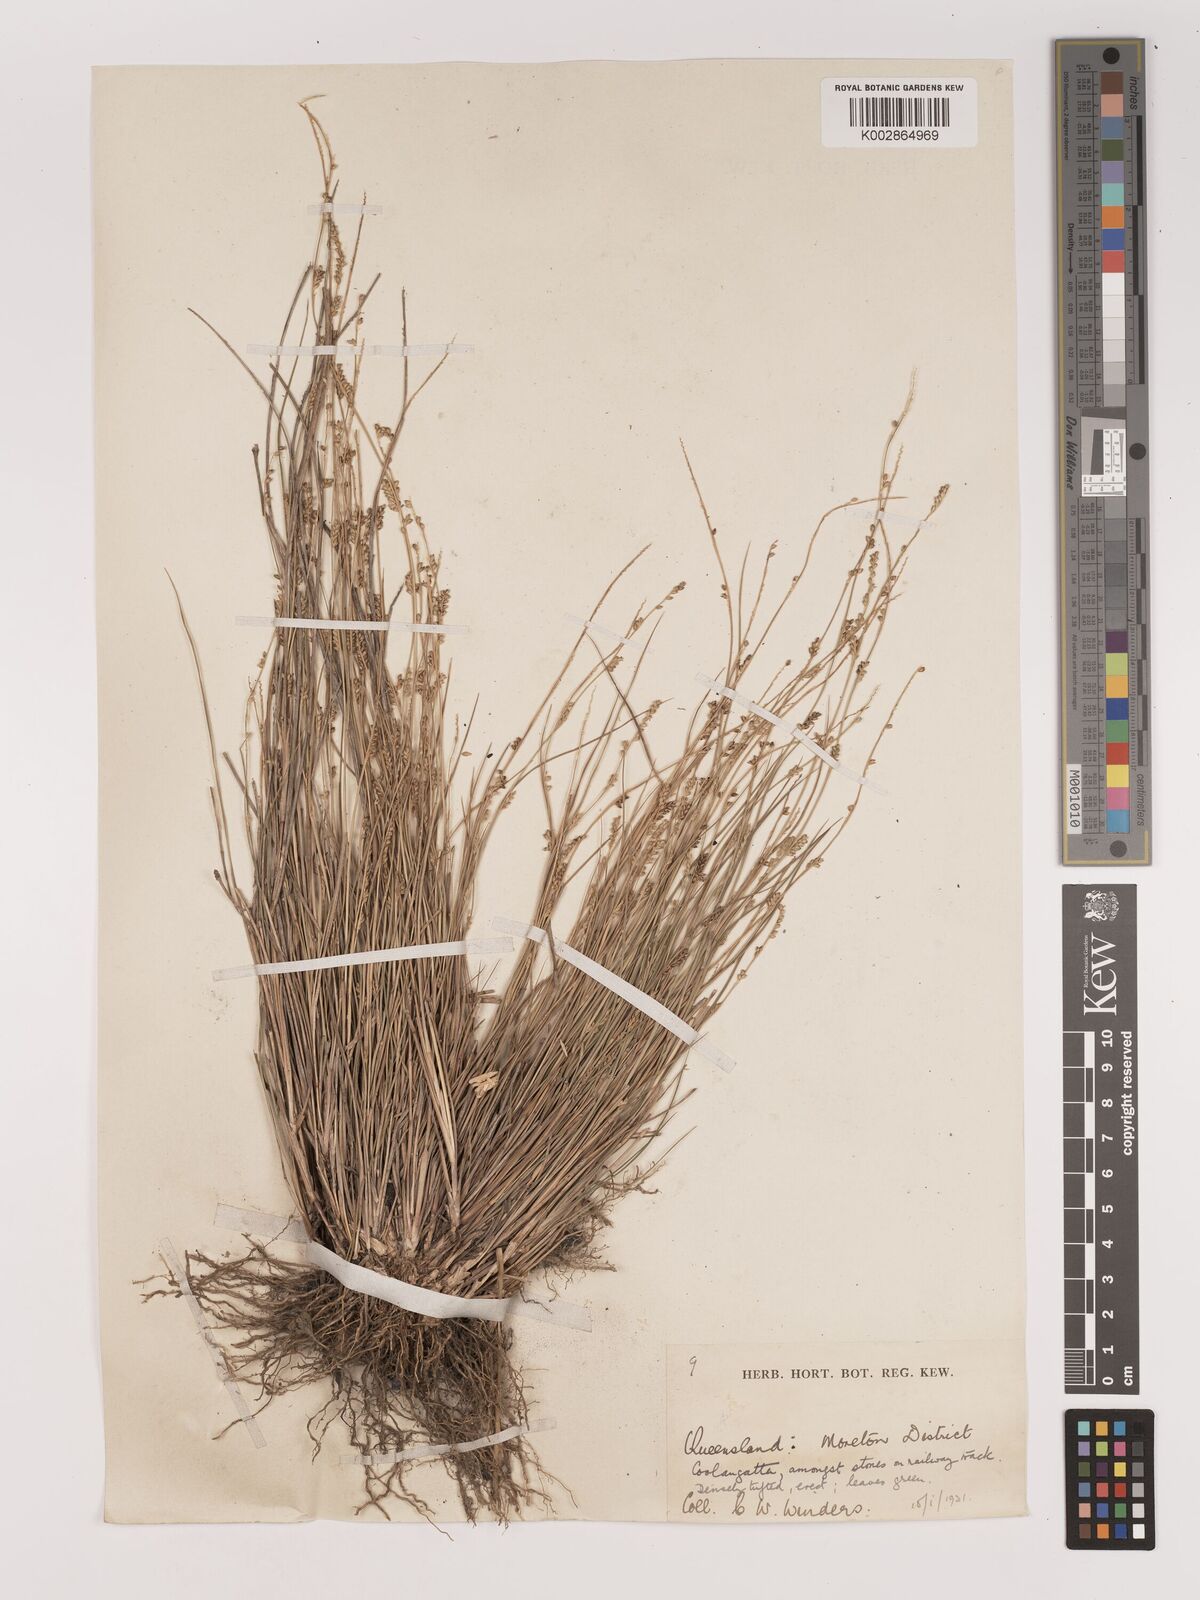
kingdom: Plantae
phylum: Tracheophyta
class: Liliopsida
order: Poales
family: Poaceae
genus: Setaria
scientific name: Setaria
